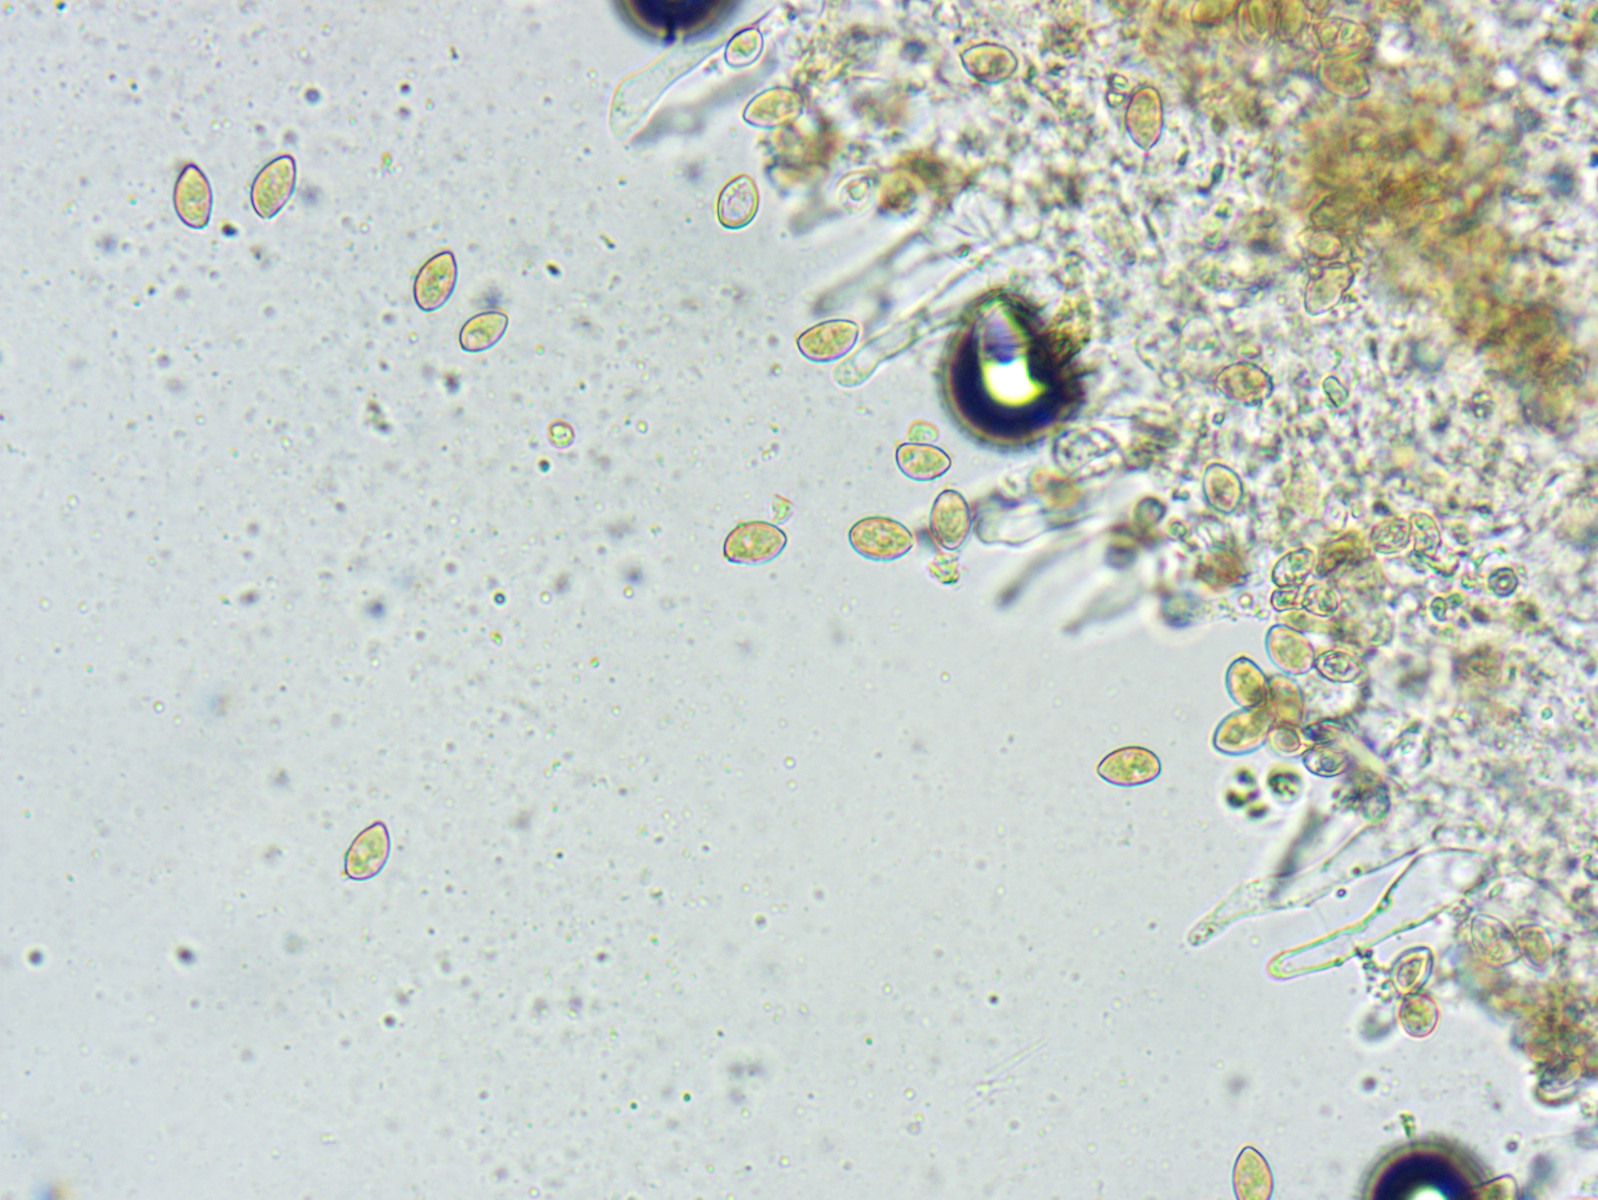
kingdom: Fungi
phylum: Basidiomycota
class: Agaricomycetes
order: Agaricales
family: Hymenogastraceae
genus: Galerina
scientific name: Galerina
